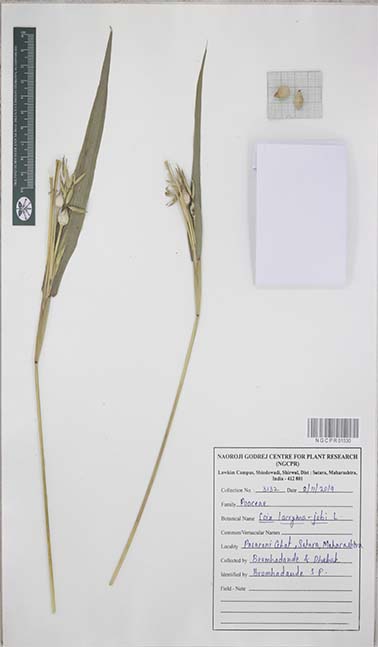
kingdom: Plantae
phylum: Tracheophyta
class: Liliopsida
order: Poales
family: Poaceae
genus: Coix
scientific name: Coix lacryma-jobi
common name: Job's tears
